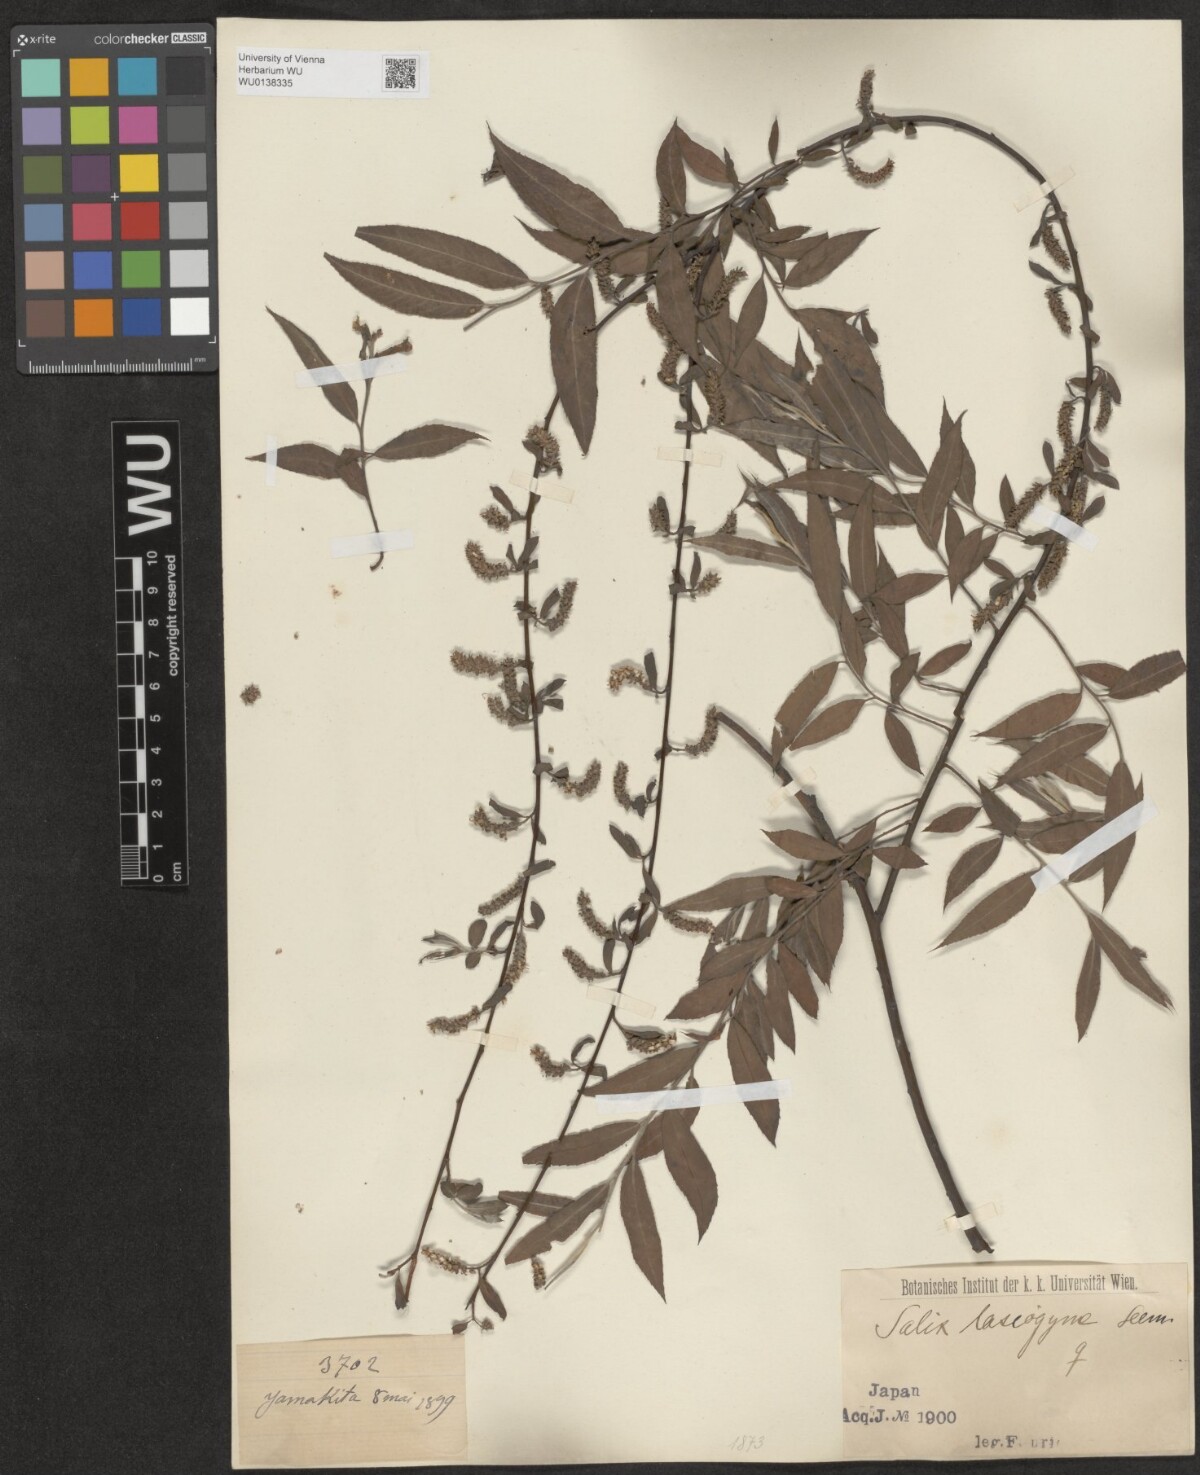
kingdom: Plantae
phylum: Tracheophyta
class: Magnoliopsida
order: Malpighiales
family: Salicaceae
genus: Salix
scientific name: Salix babylonica
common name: Weeping willow
